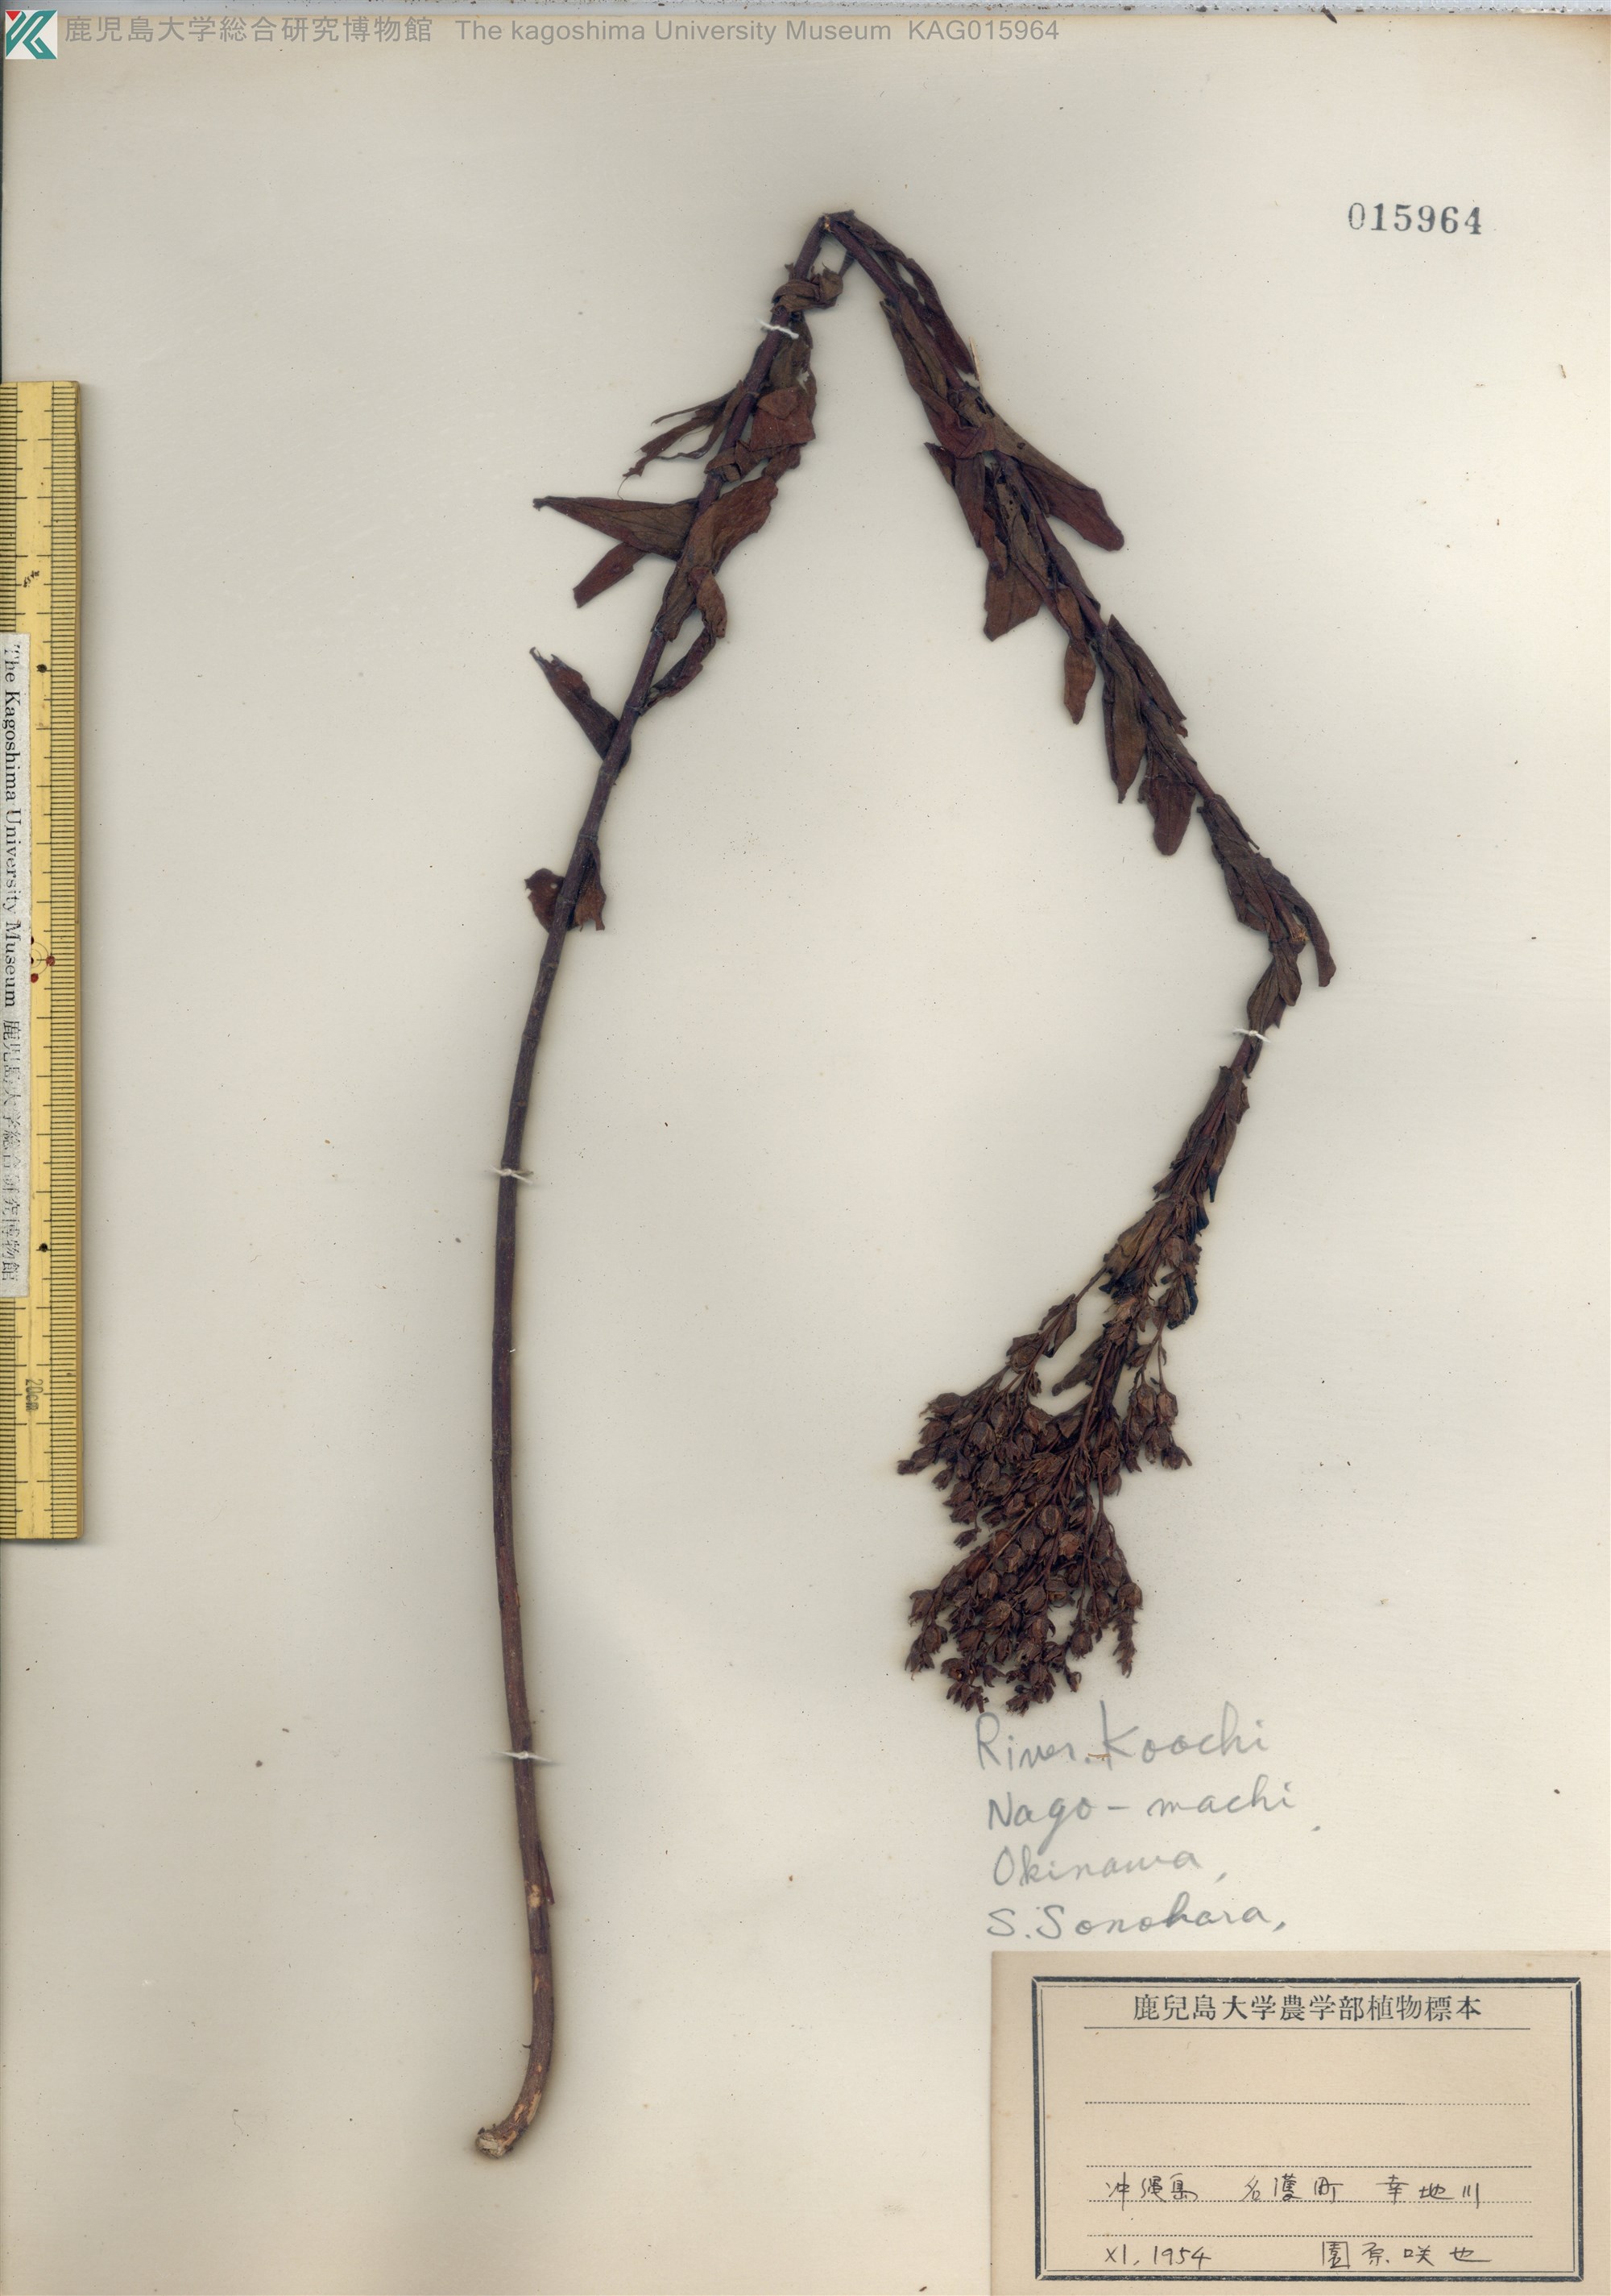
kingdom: Plantae
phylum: Tracheophyta
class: Magnoliopsida
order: Malpighiales
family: Hypericaceae
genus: Hypericum
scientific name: Hypericum erectum
